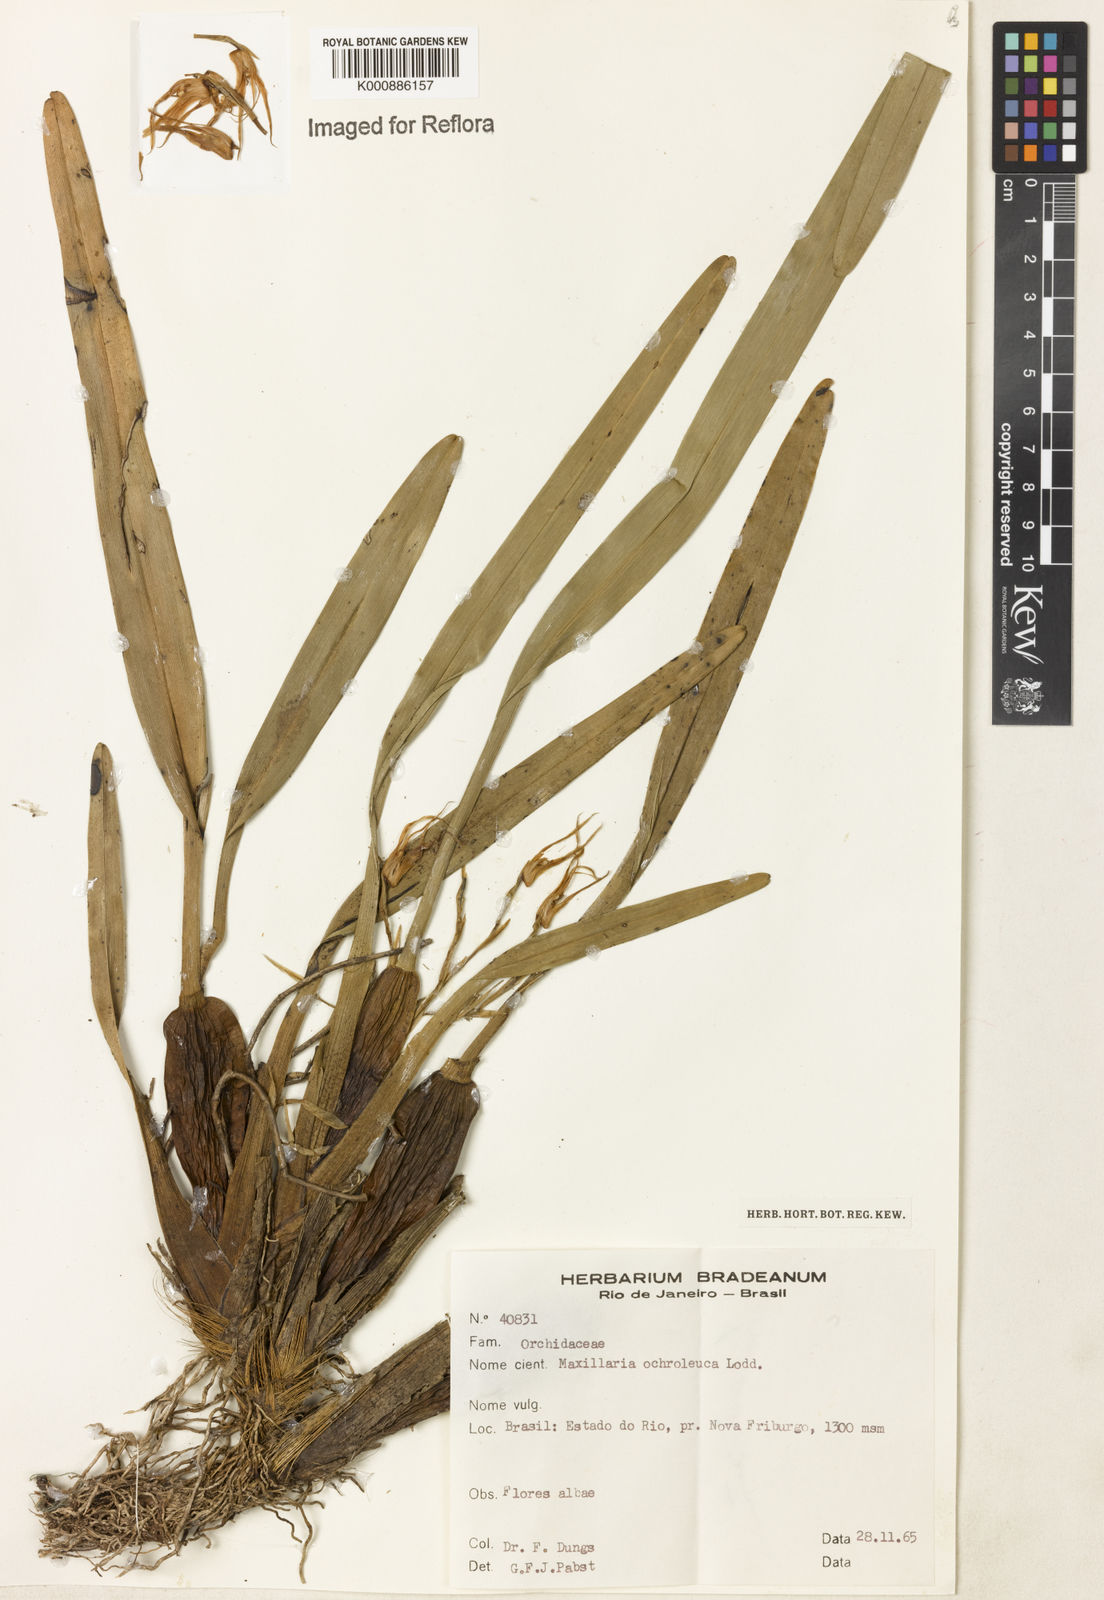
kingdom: Plantae
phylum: Tracheophyta
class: Liliopsida
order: Asparagales
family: Orchidaceae
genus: Maxillaria
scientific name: Maxillaria ochroleuca
